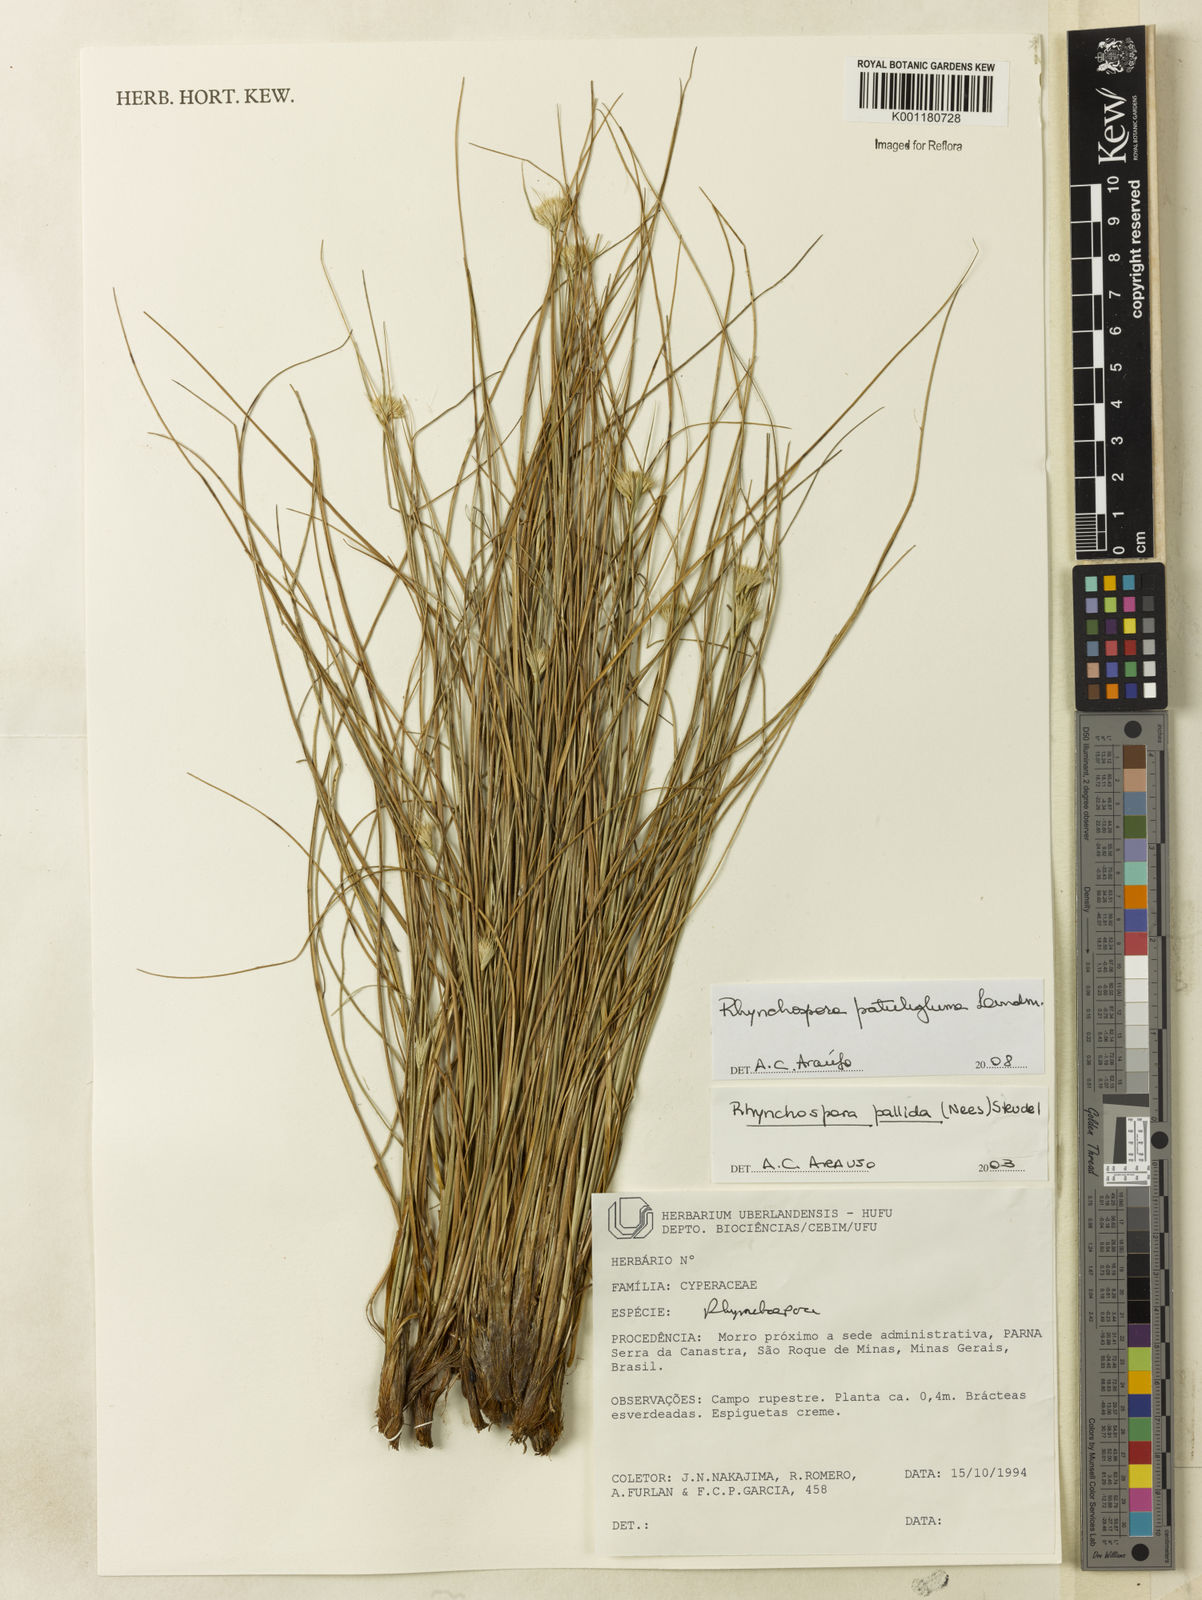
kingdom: Plantae
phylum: Tracheophyta
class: Liliopsida
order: Poales
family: Cyperaceae
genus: Rhynchospora
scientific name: Rhynchospora patuligluma
